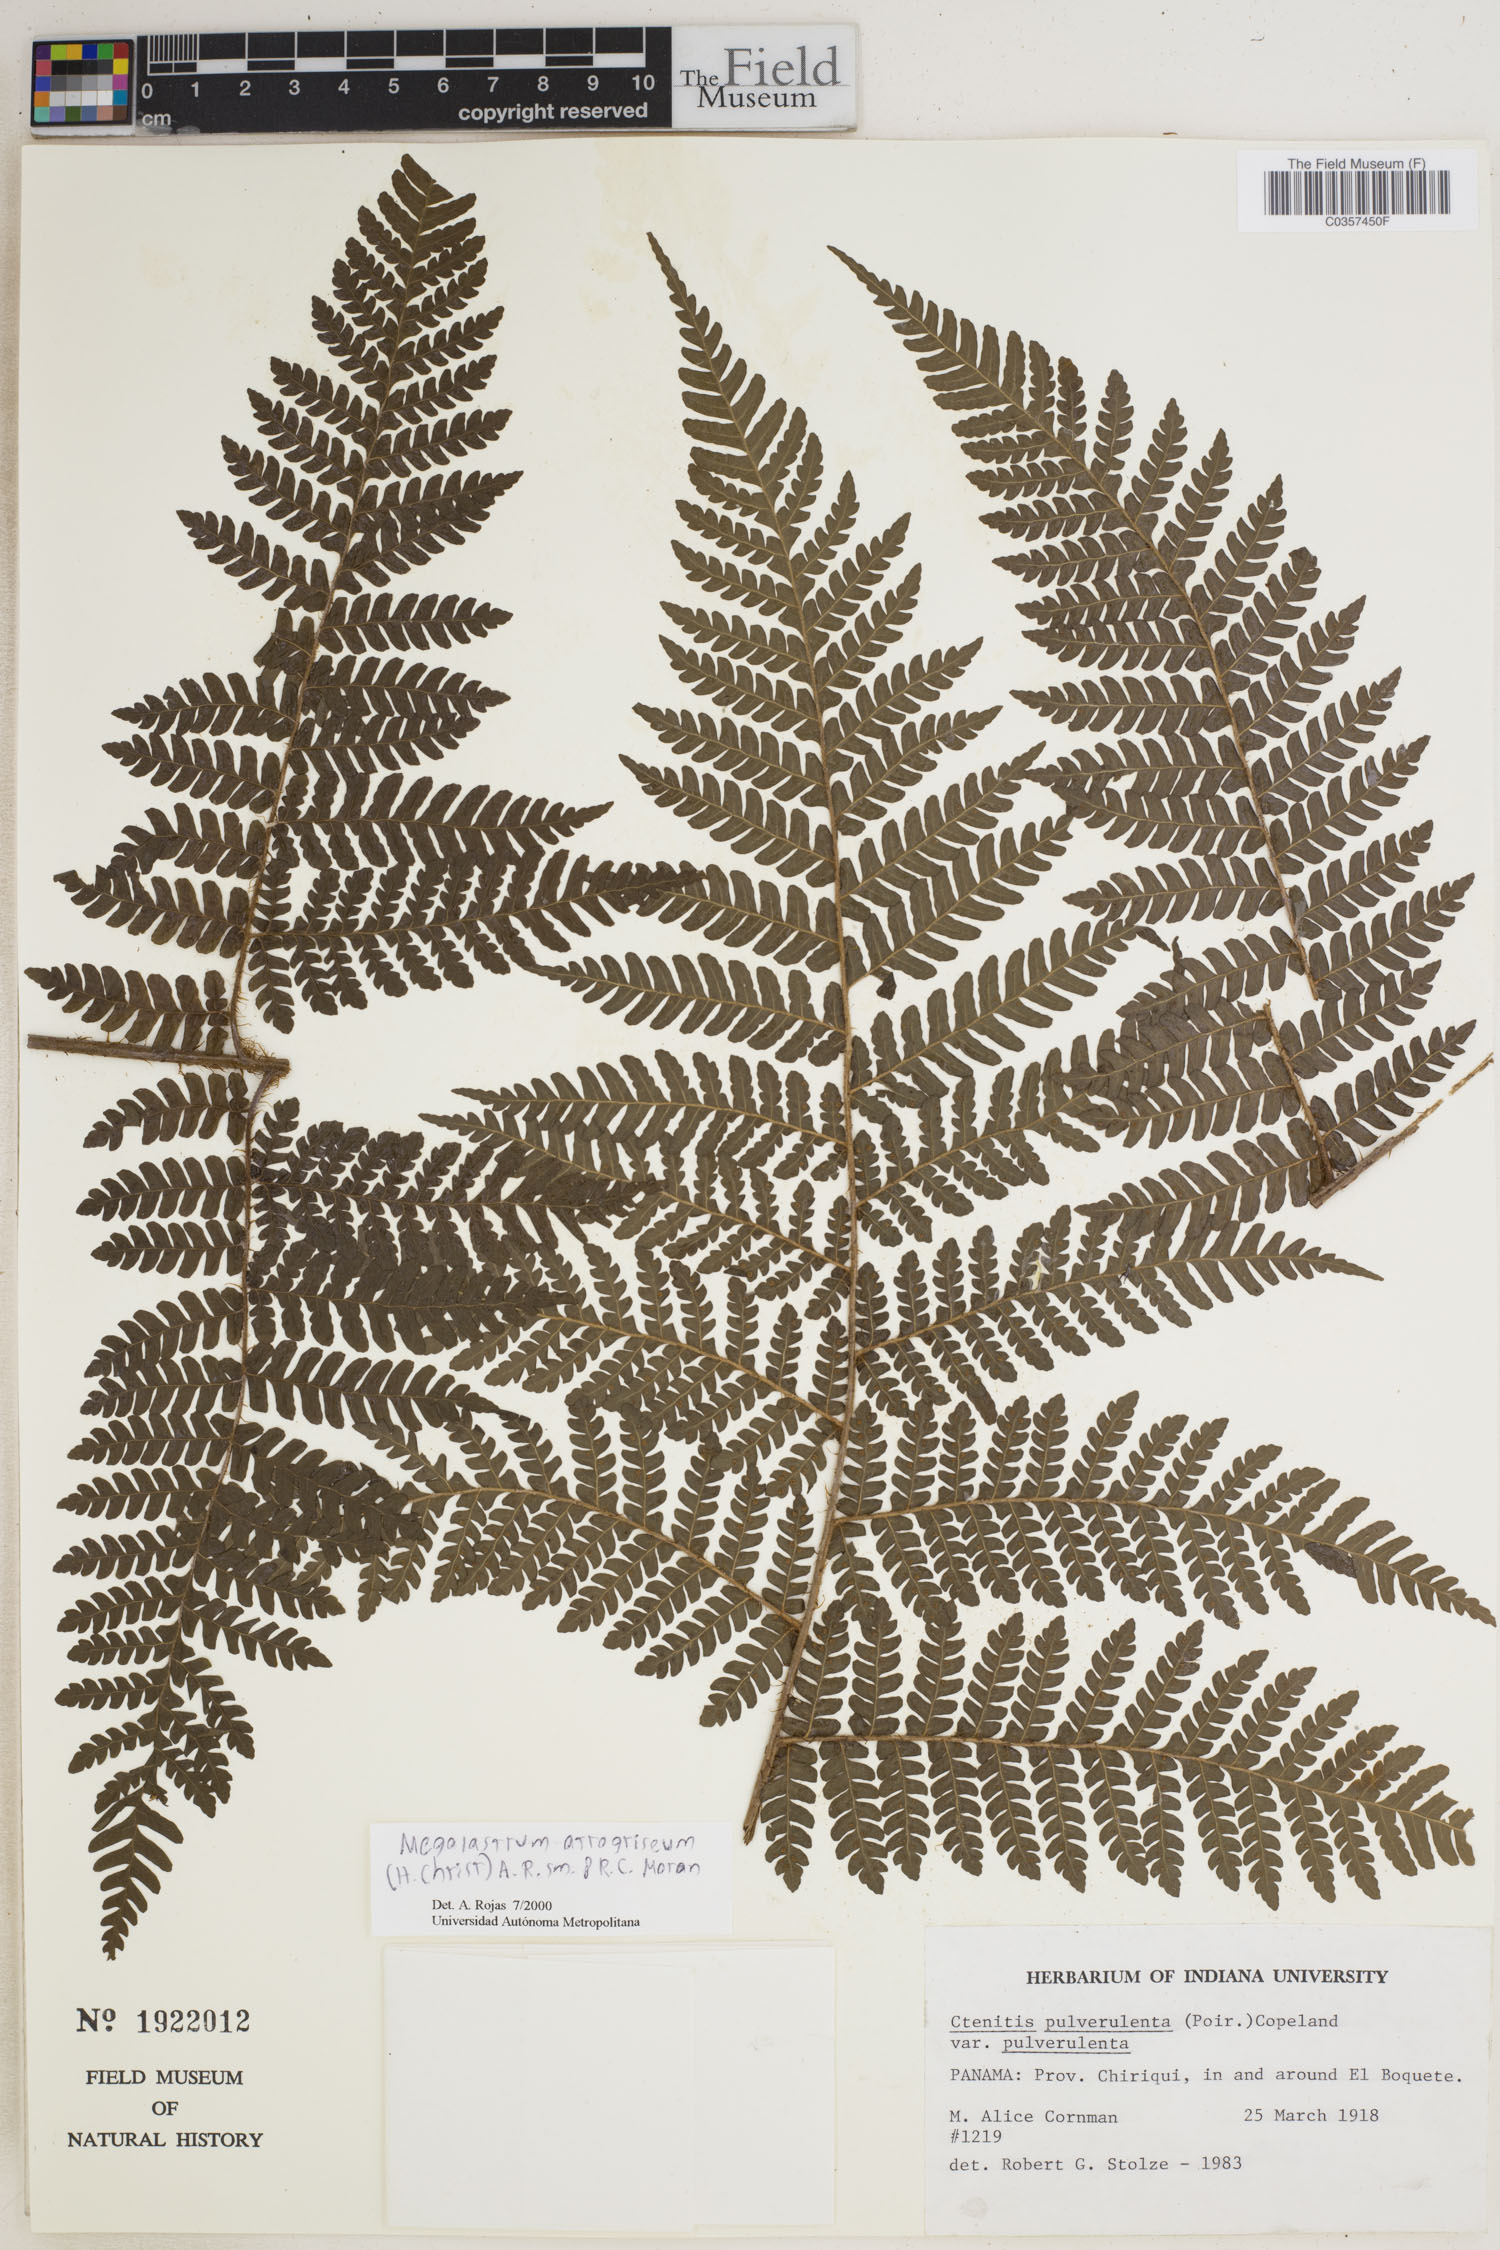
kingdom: Plantae
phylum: Tracheophyta
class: Polypodiopsida
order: Polypodiales
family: Dryopteridaceae
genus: Megalastrum
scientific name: Megalastrum atrogriseum
